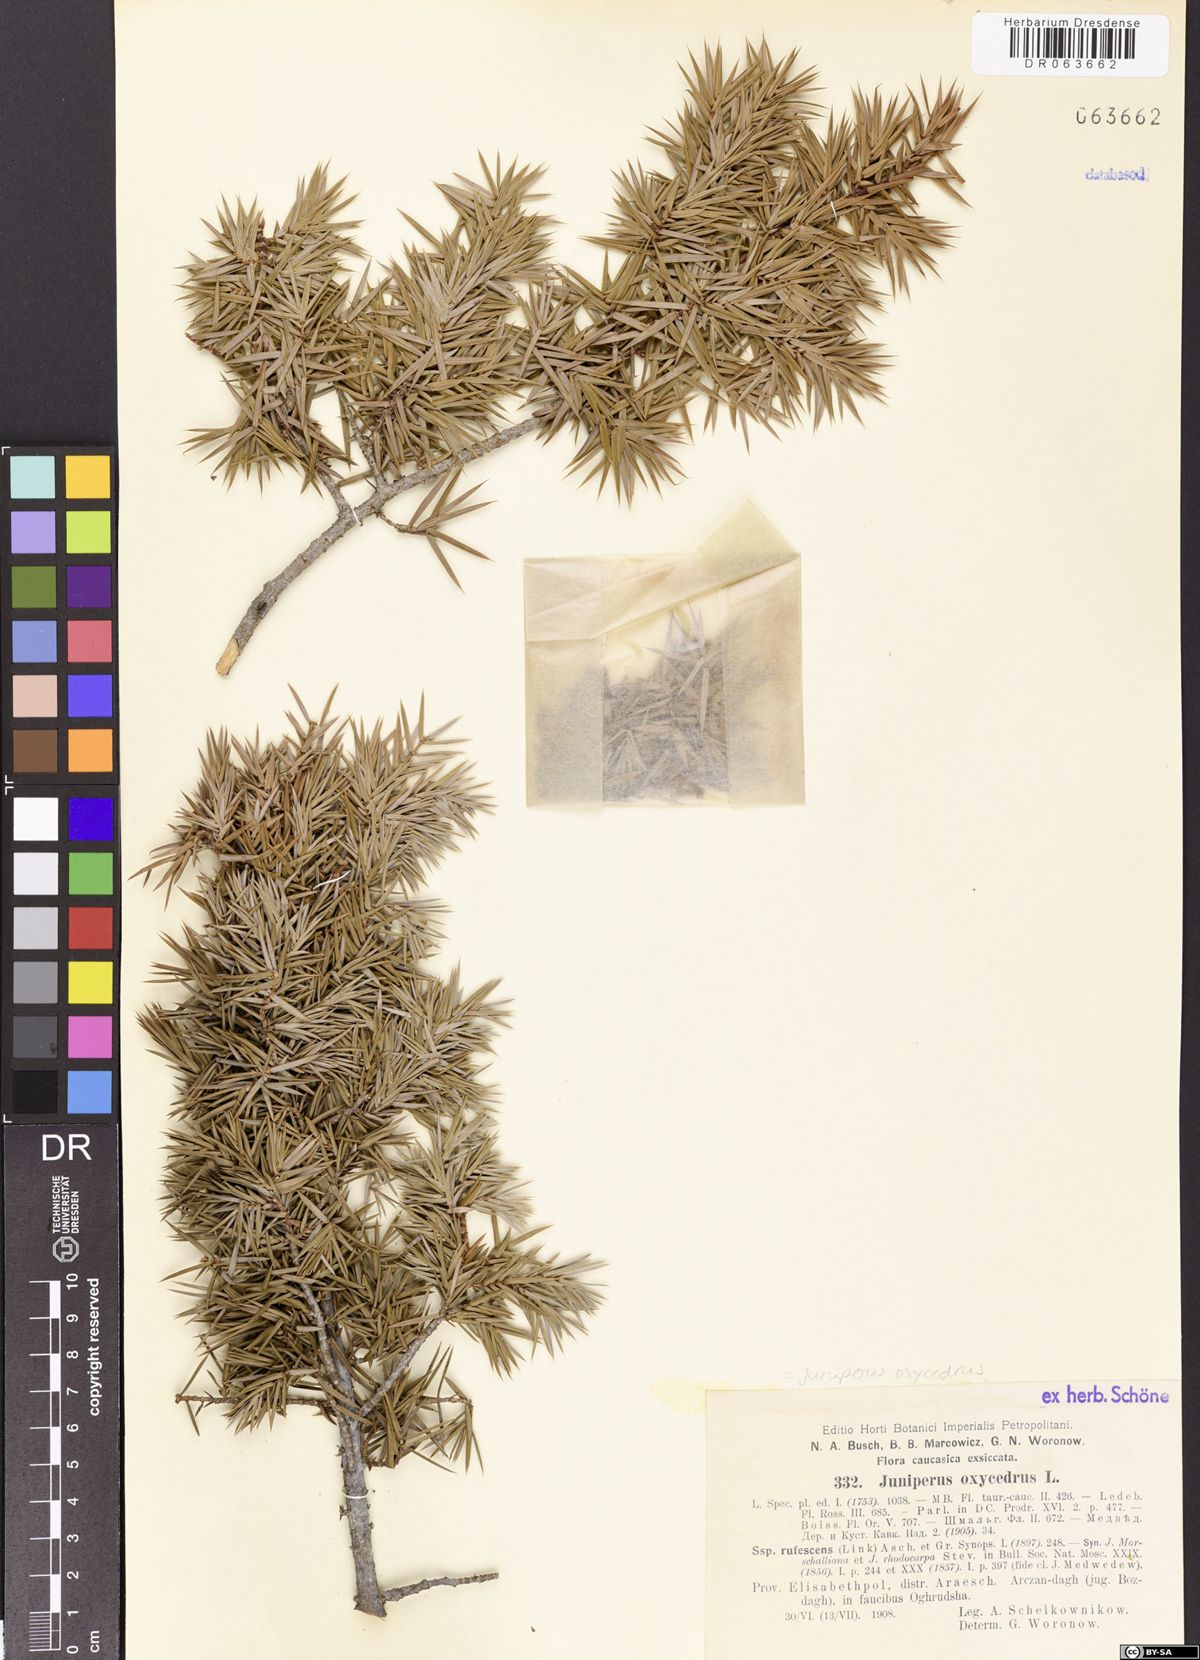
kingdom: Plantae
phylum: Tracheophyta
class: Pinopsida
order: Pinales
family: Cupressaceae
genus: Juniperus
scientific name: Juniperus oxycedrus
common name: Prickly juniper
